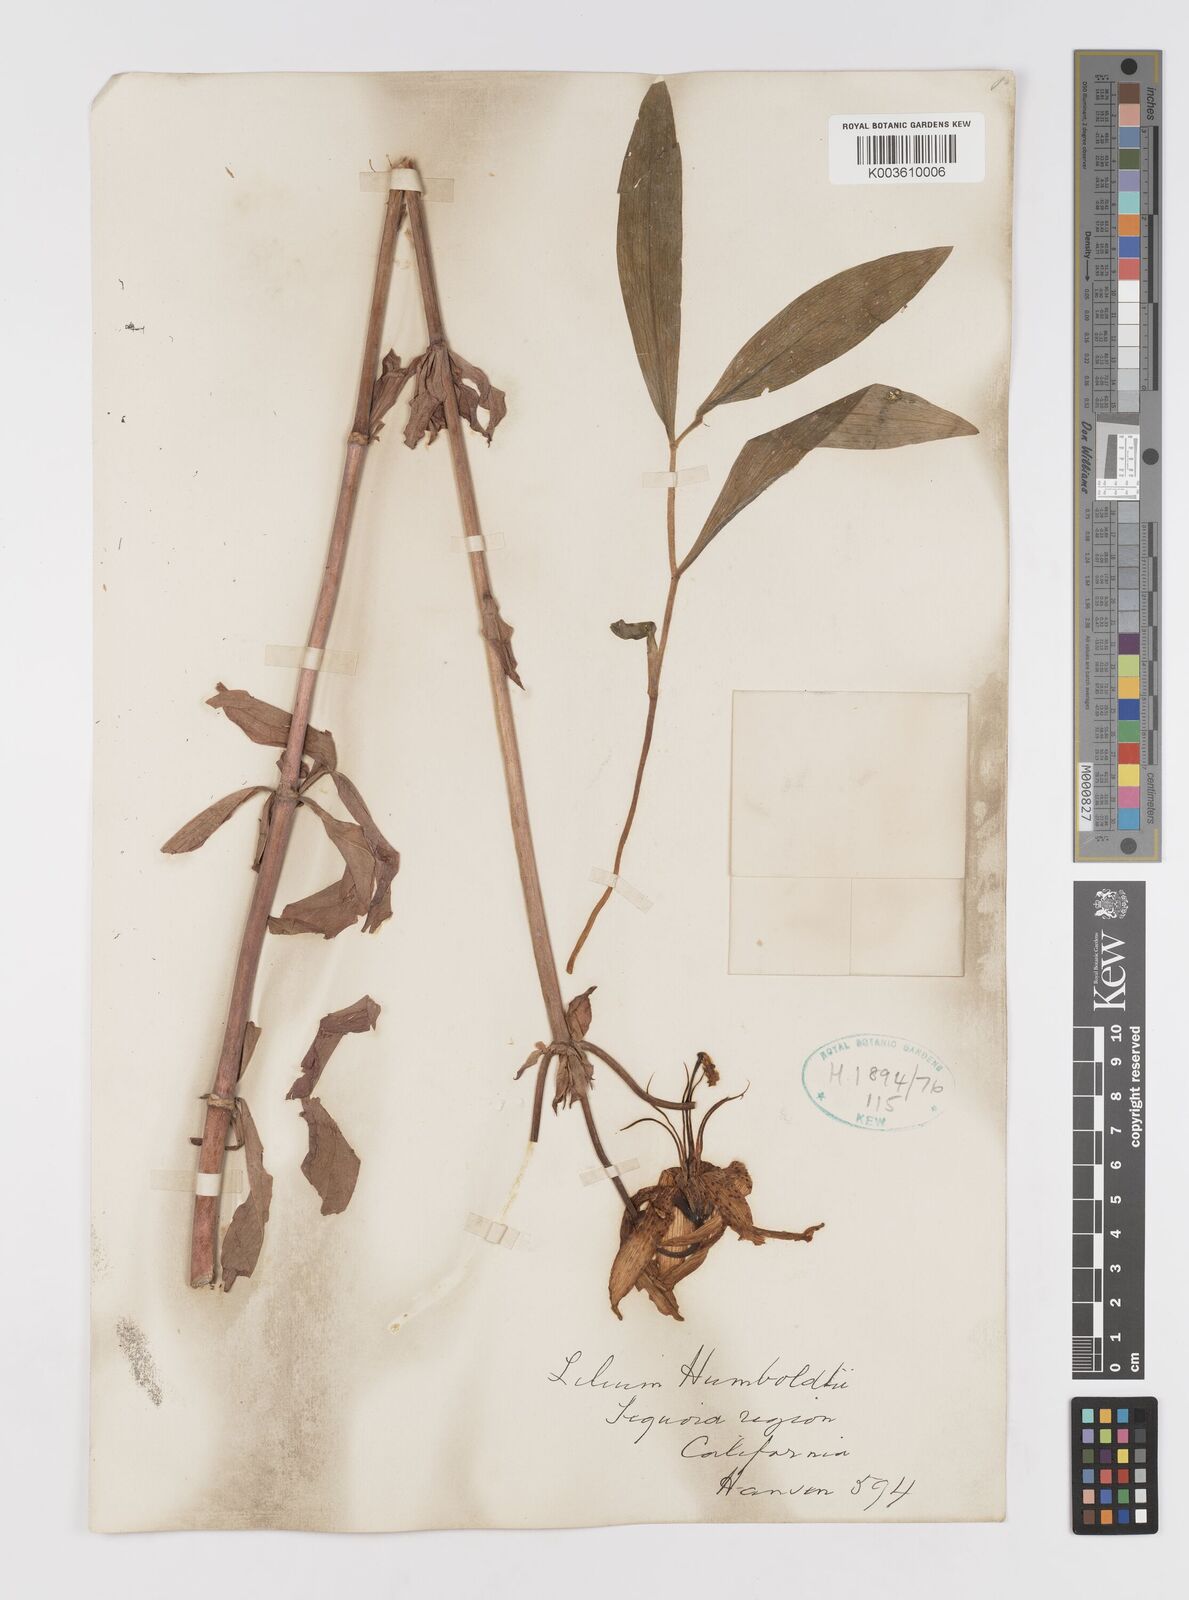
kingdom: Plantae
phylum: Tracheophyta
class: Liliopsida
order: Liliales
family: Liliaceae
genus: Lilium
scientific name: Lilium humboldtii
